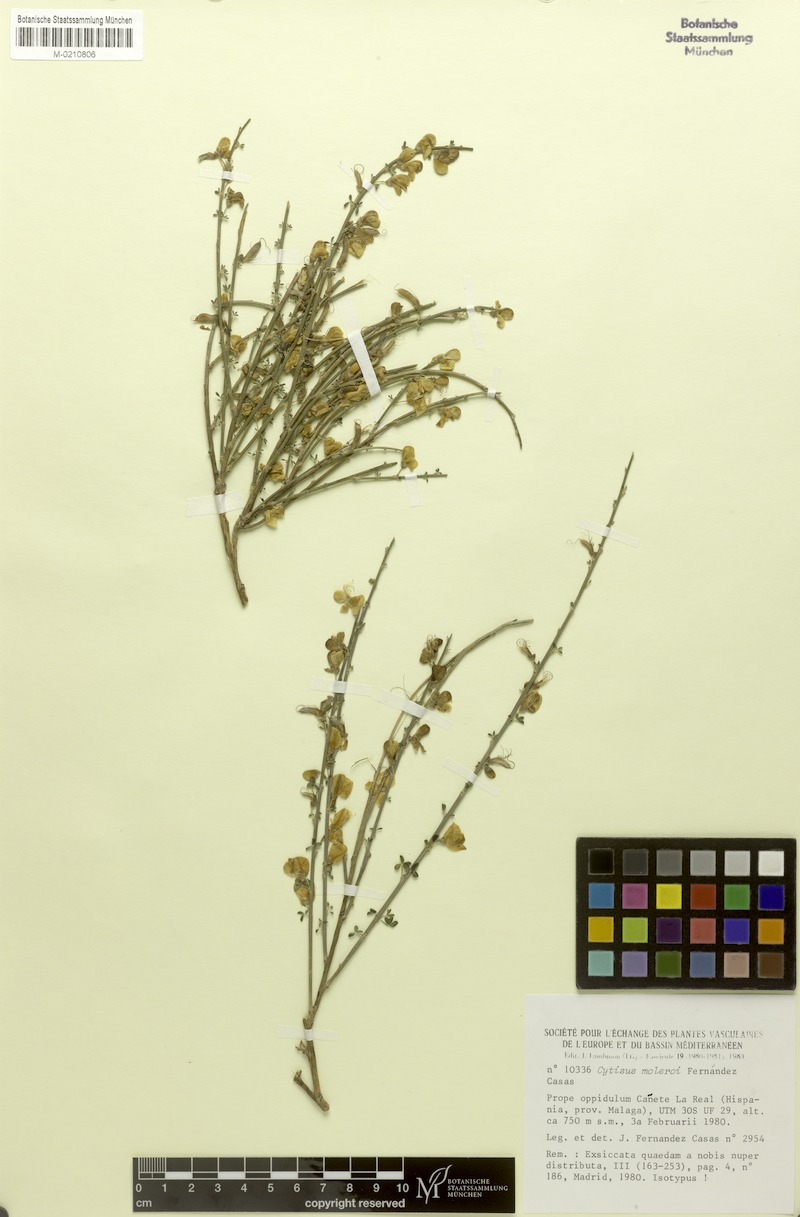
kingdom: Plantae
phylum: Tracheophyta
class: Magnoliopsida
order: Fabales
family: Fabaceae
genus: Cytisus
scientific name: Cytisus malacitanus
